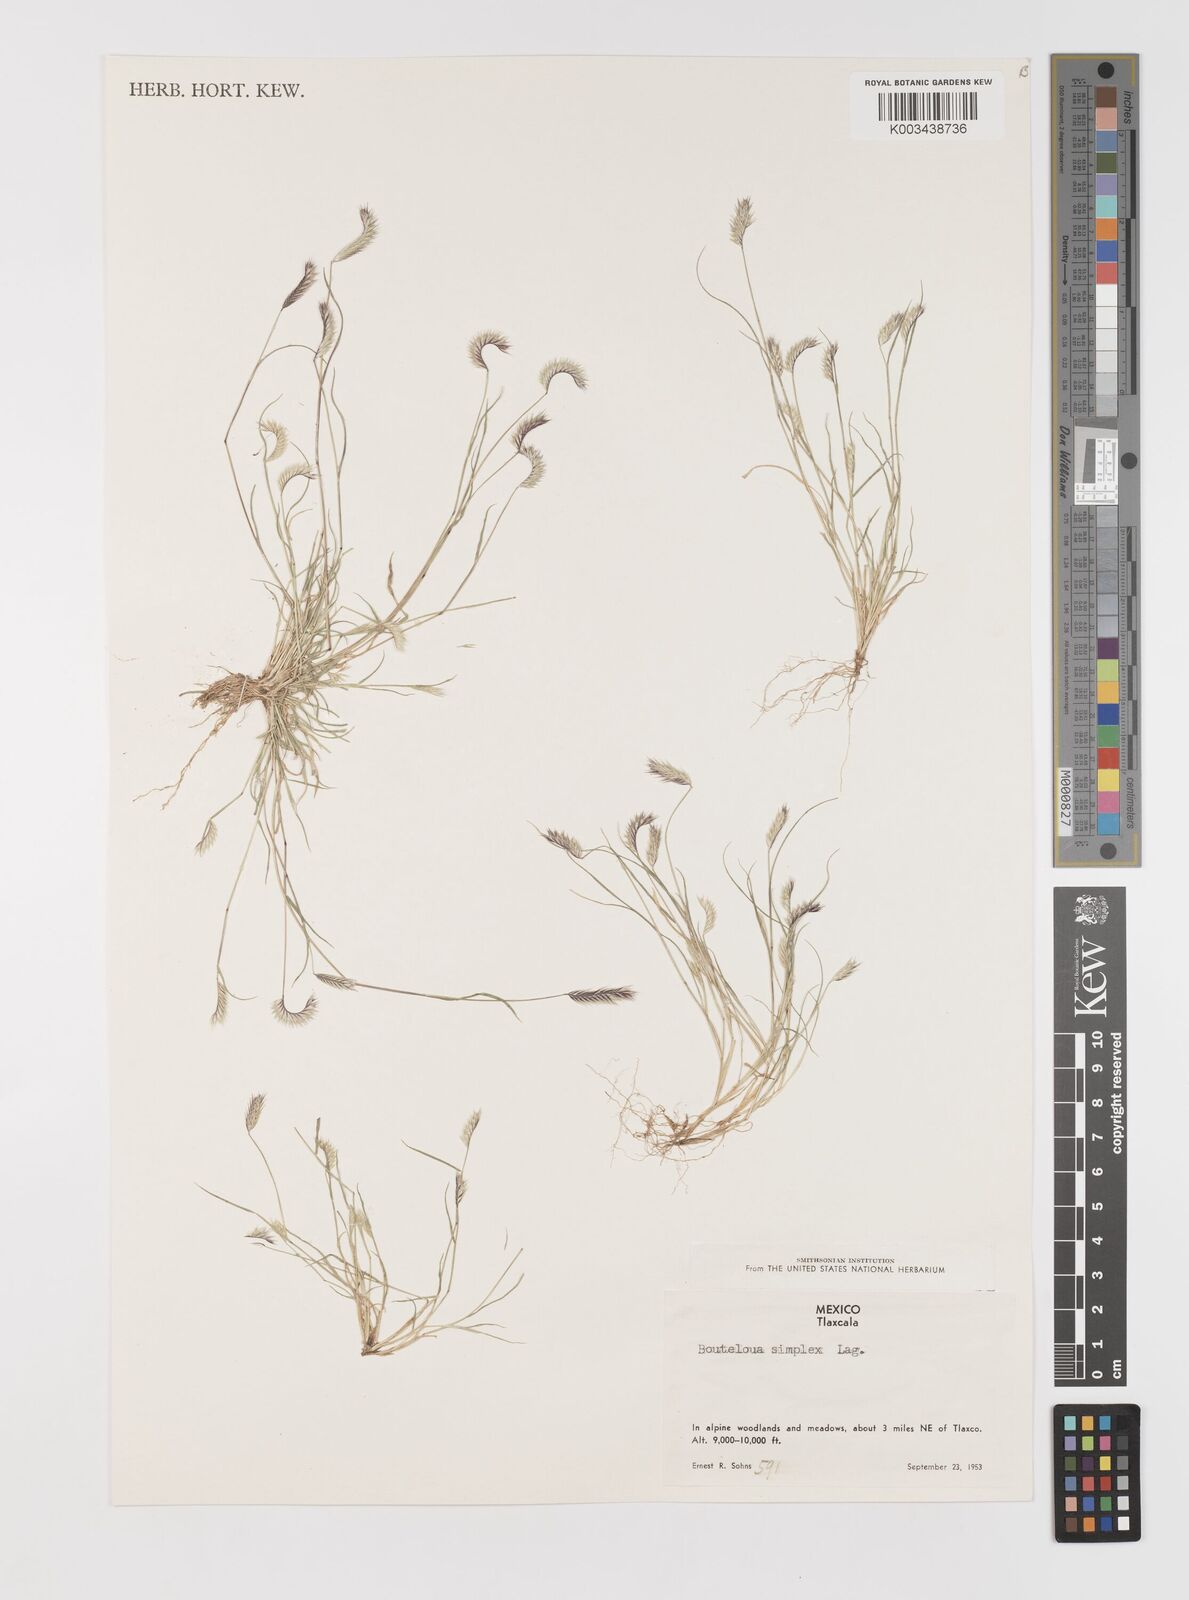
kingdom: Plantae
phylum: Tracheophyta
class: Liliopsida
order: Poales
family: Poaceae
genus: Bouteloua
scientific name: Bouteloua simplex
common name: Mat grama
